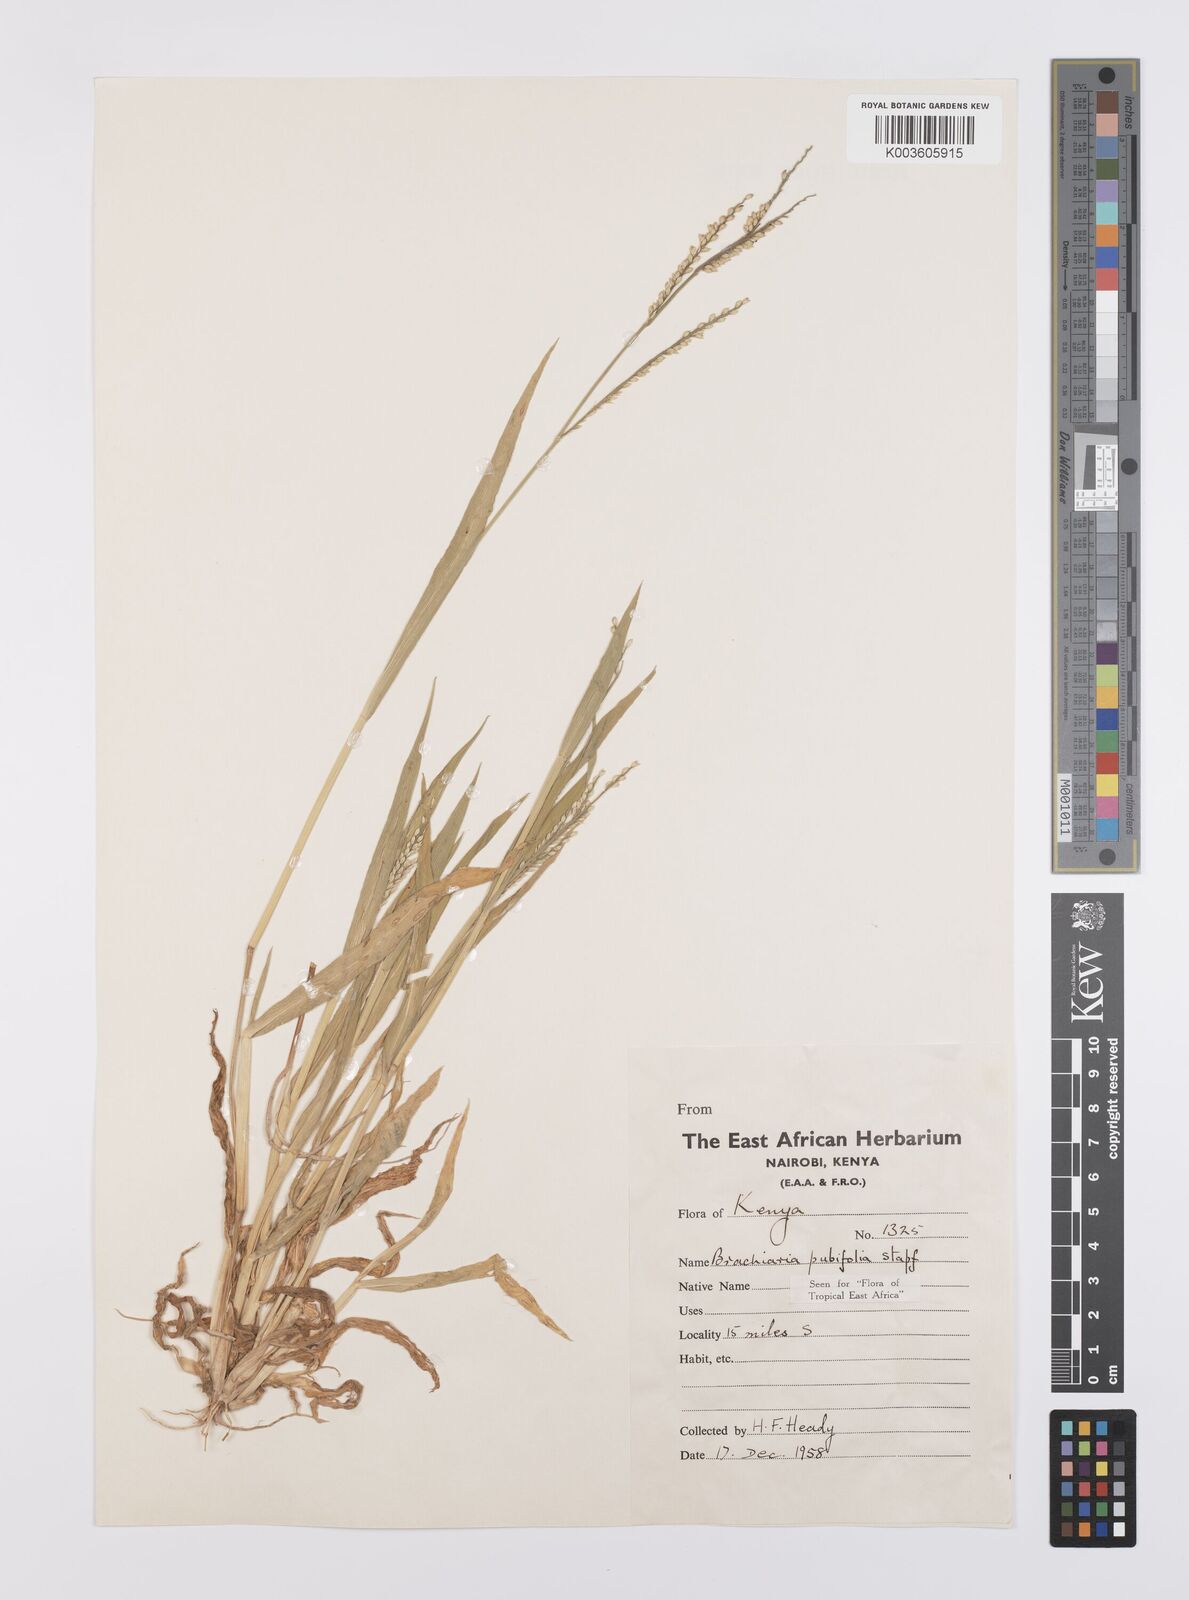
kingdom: Plantae
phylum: Tracheophyta
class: Liliopsida
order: Poales
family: Poaceae
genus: Urochloa
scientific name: Urochloa xantholeuca
